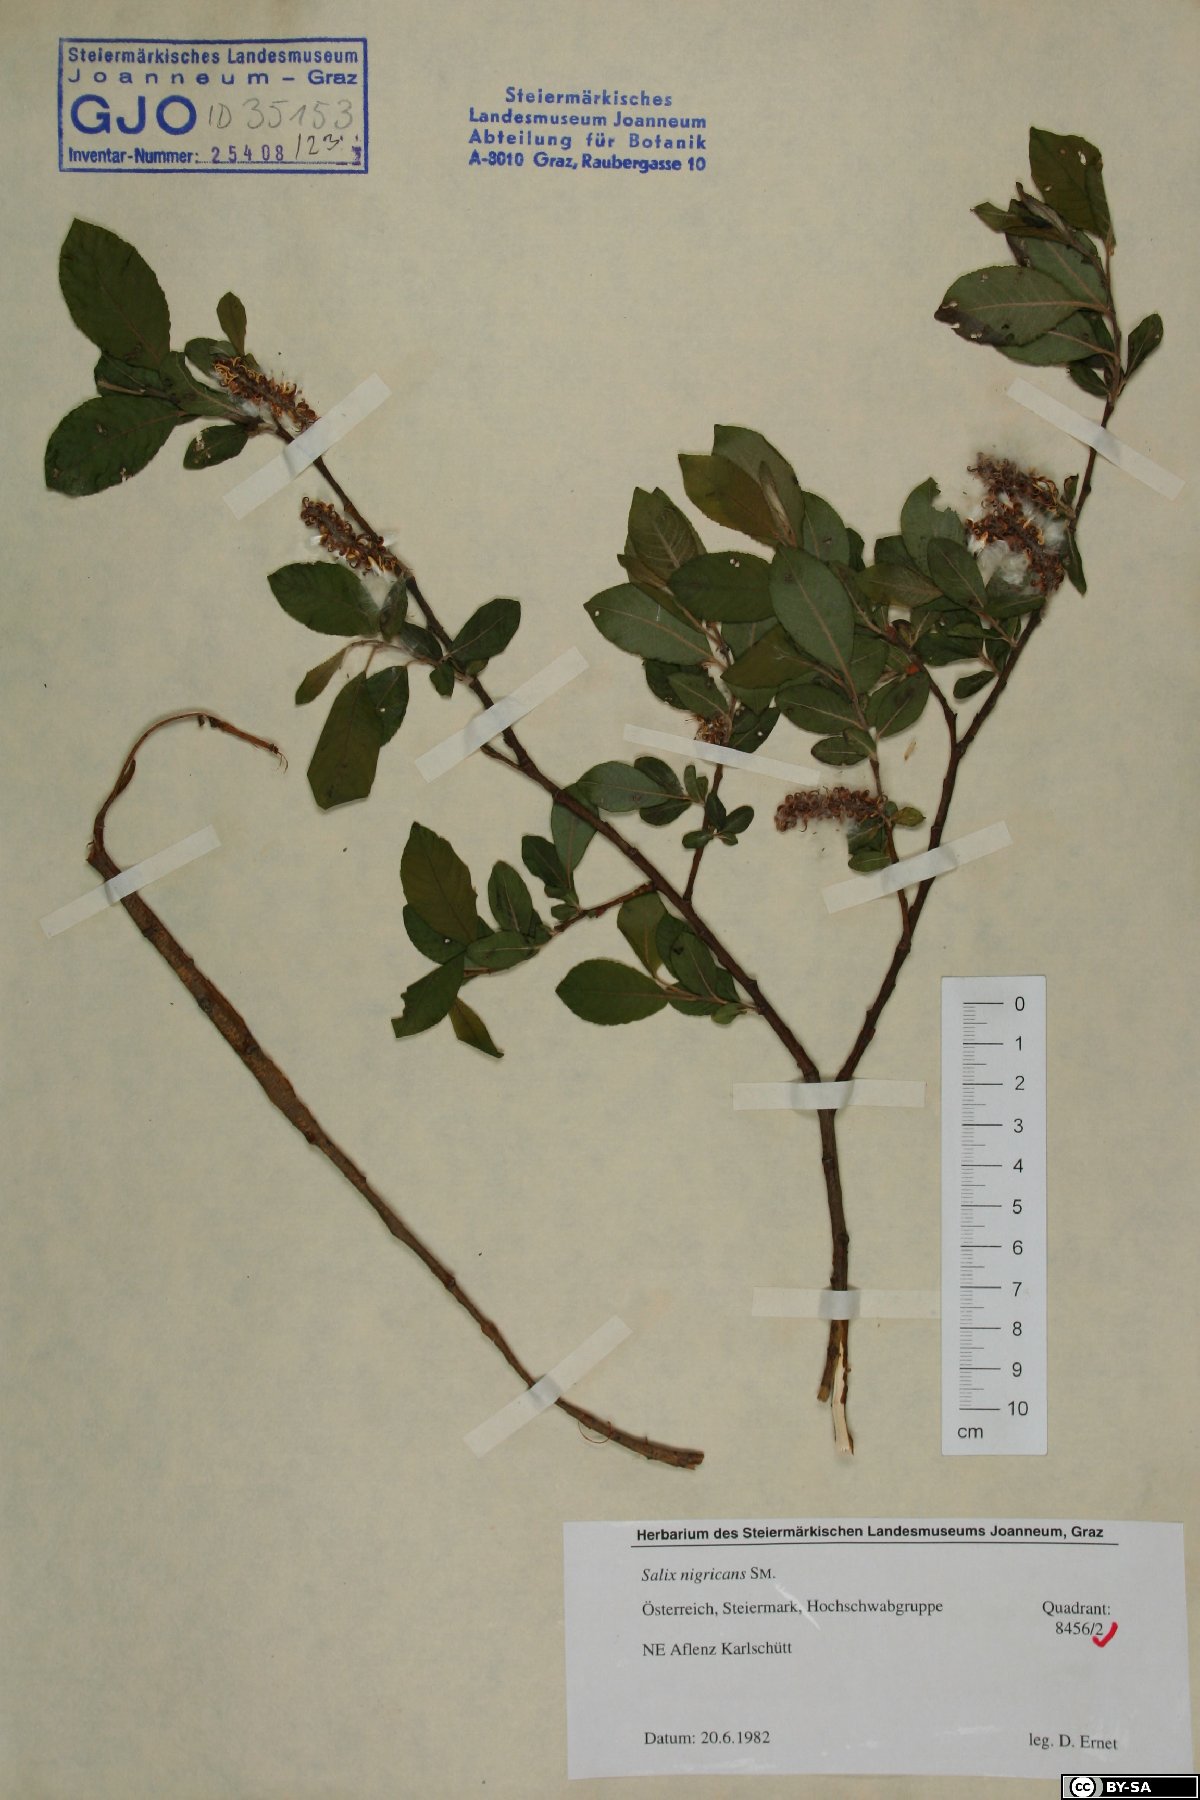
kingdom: Plantae
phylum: Tracheophyta
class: Magnoliopsida
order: Malpighiales
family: Salicaceae
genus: Salix
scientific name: Salix myrsinifolia
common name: Dark-leaved willow
